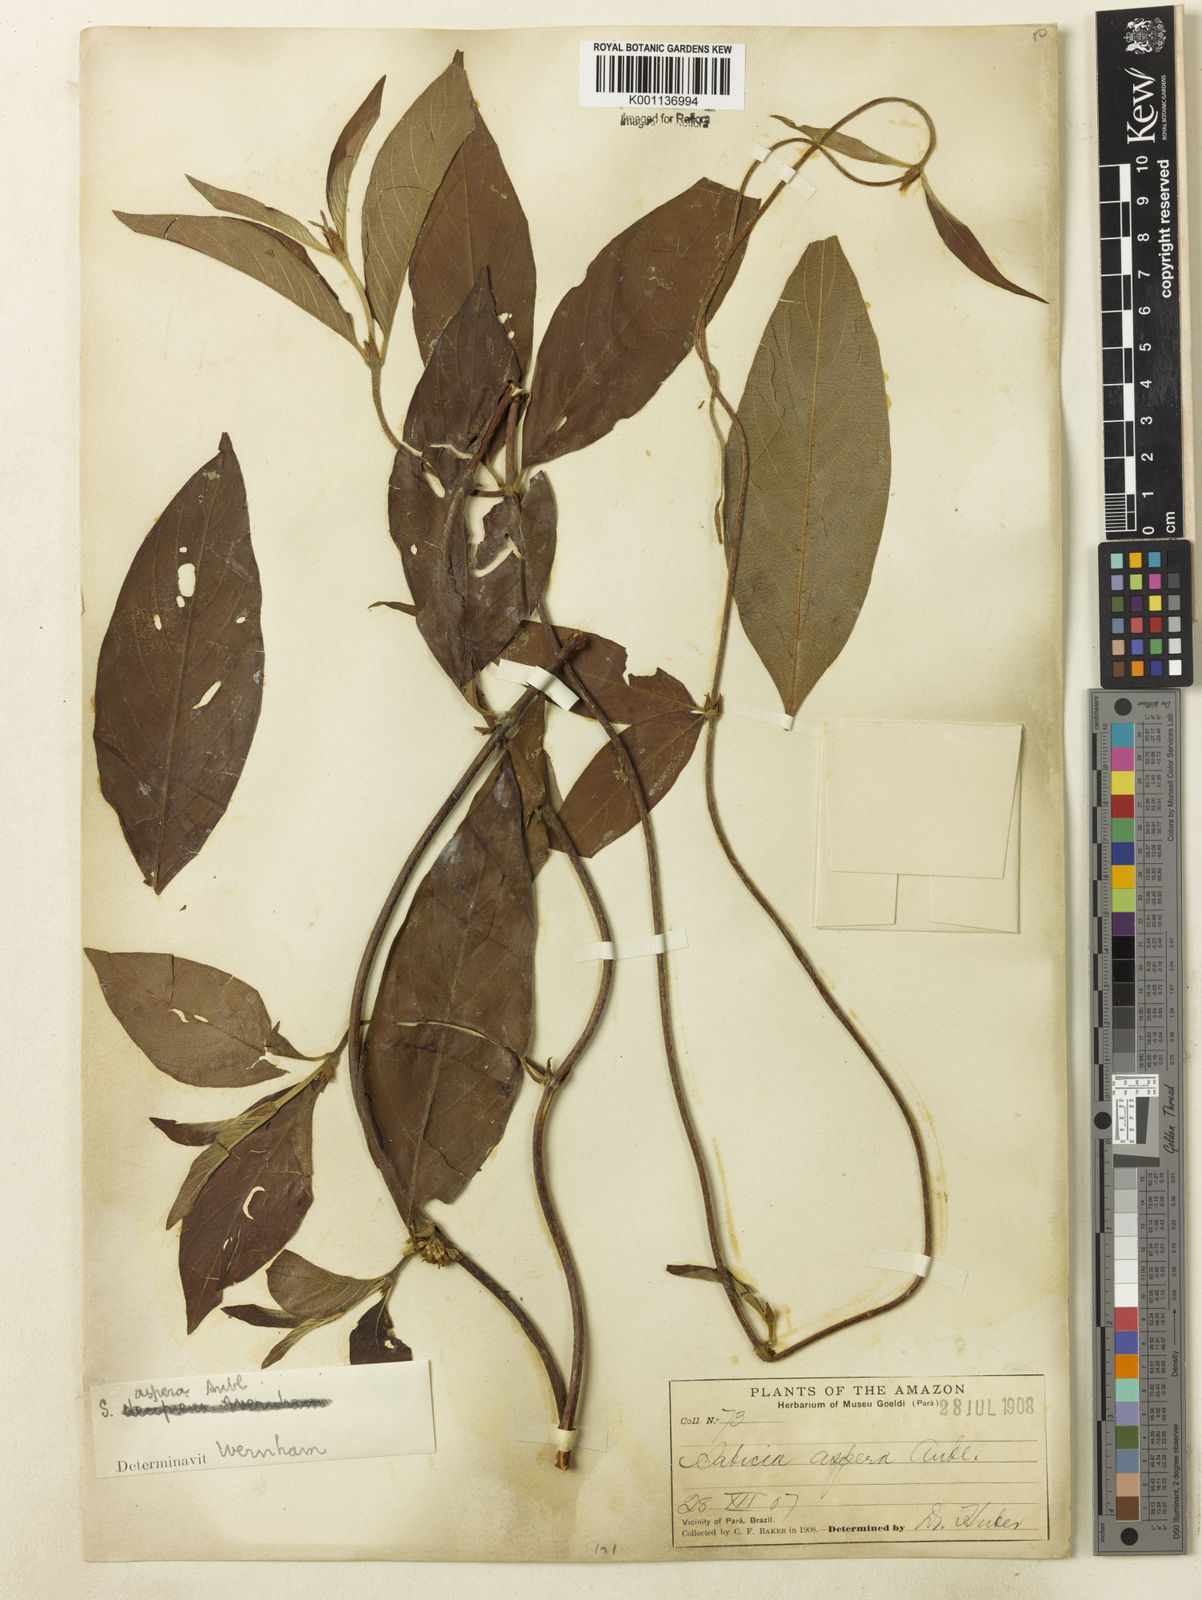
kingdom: Plantae
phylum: Tracheophyta
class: Magnoliopsida
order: Gentianales
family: Rubiaceae
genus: Sabicea
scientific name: Sabicea aspera
